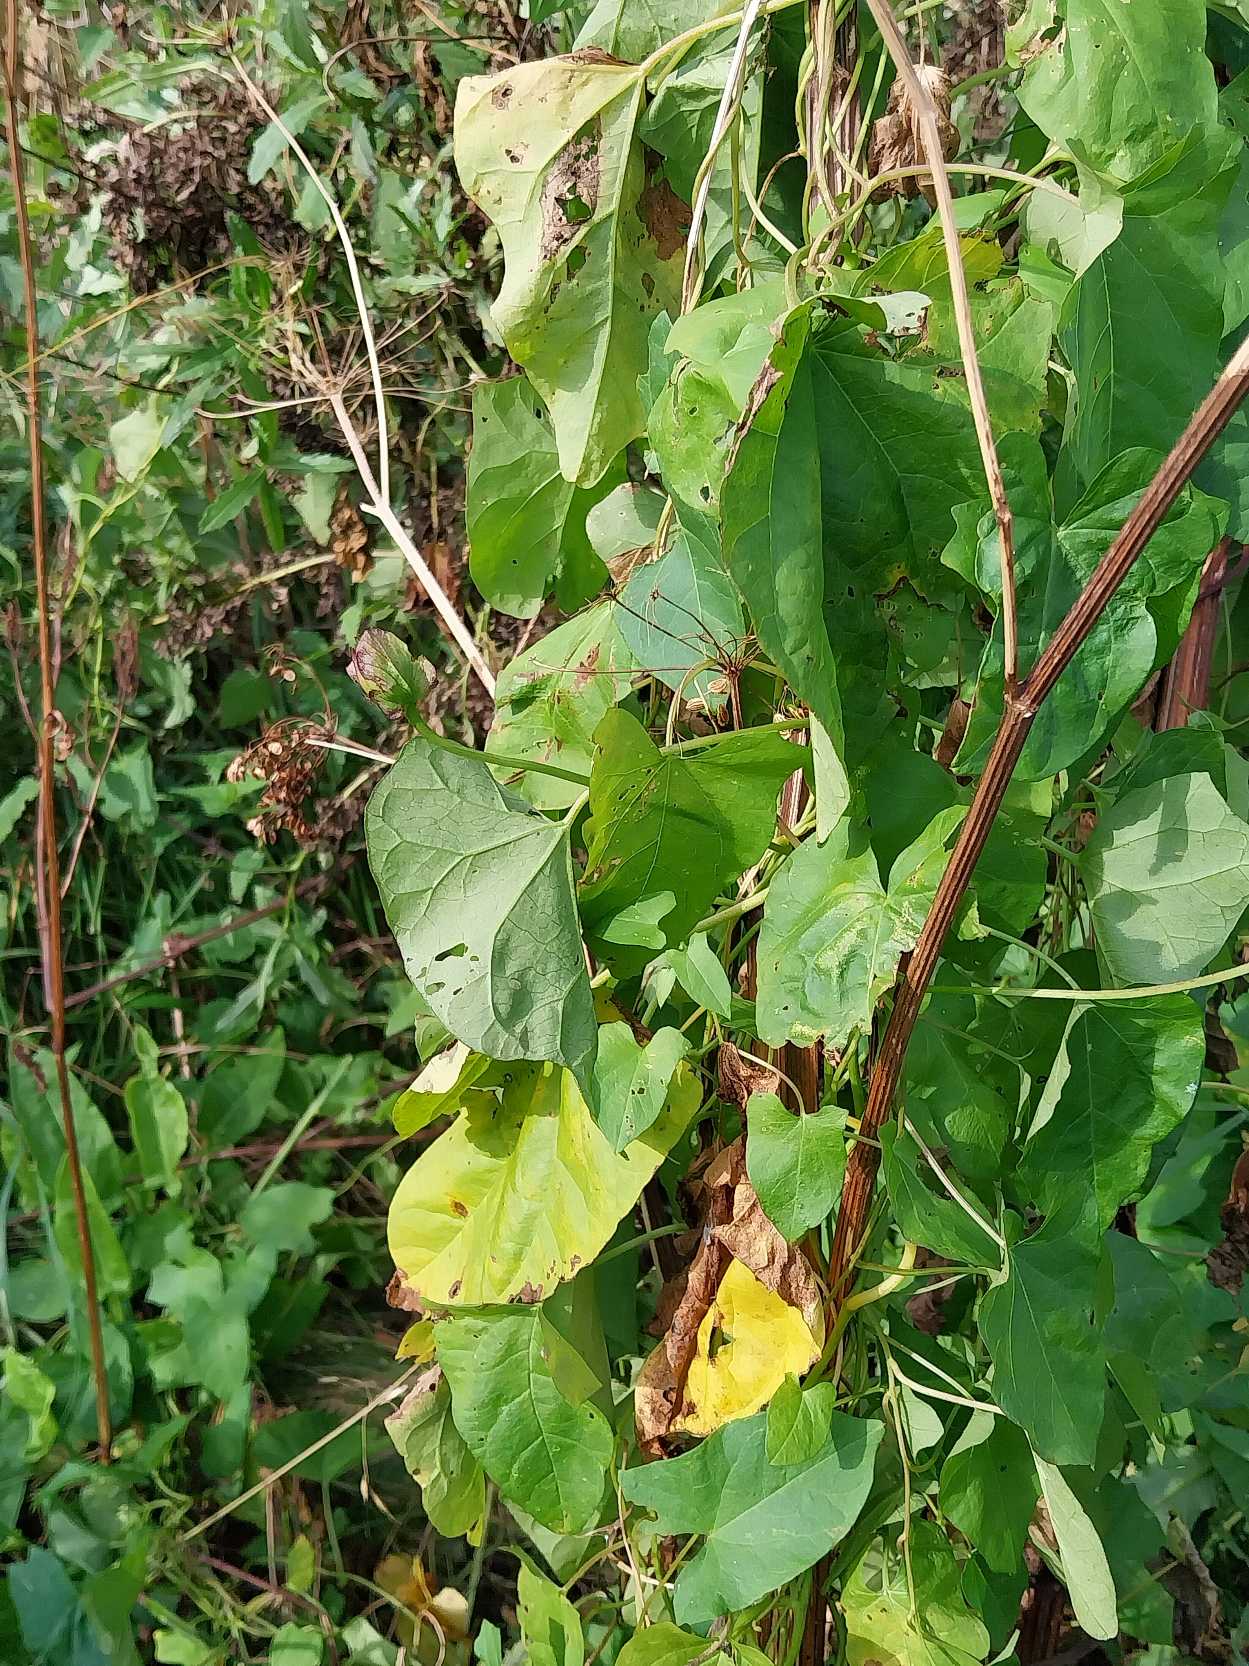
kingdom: Plantae
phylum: Tracheophyta
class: Magnoliopsida
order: Solanales
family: Convolvulaceae
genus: Calystegia
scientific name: Calystegia sepium
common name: Gærde-snerle
